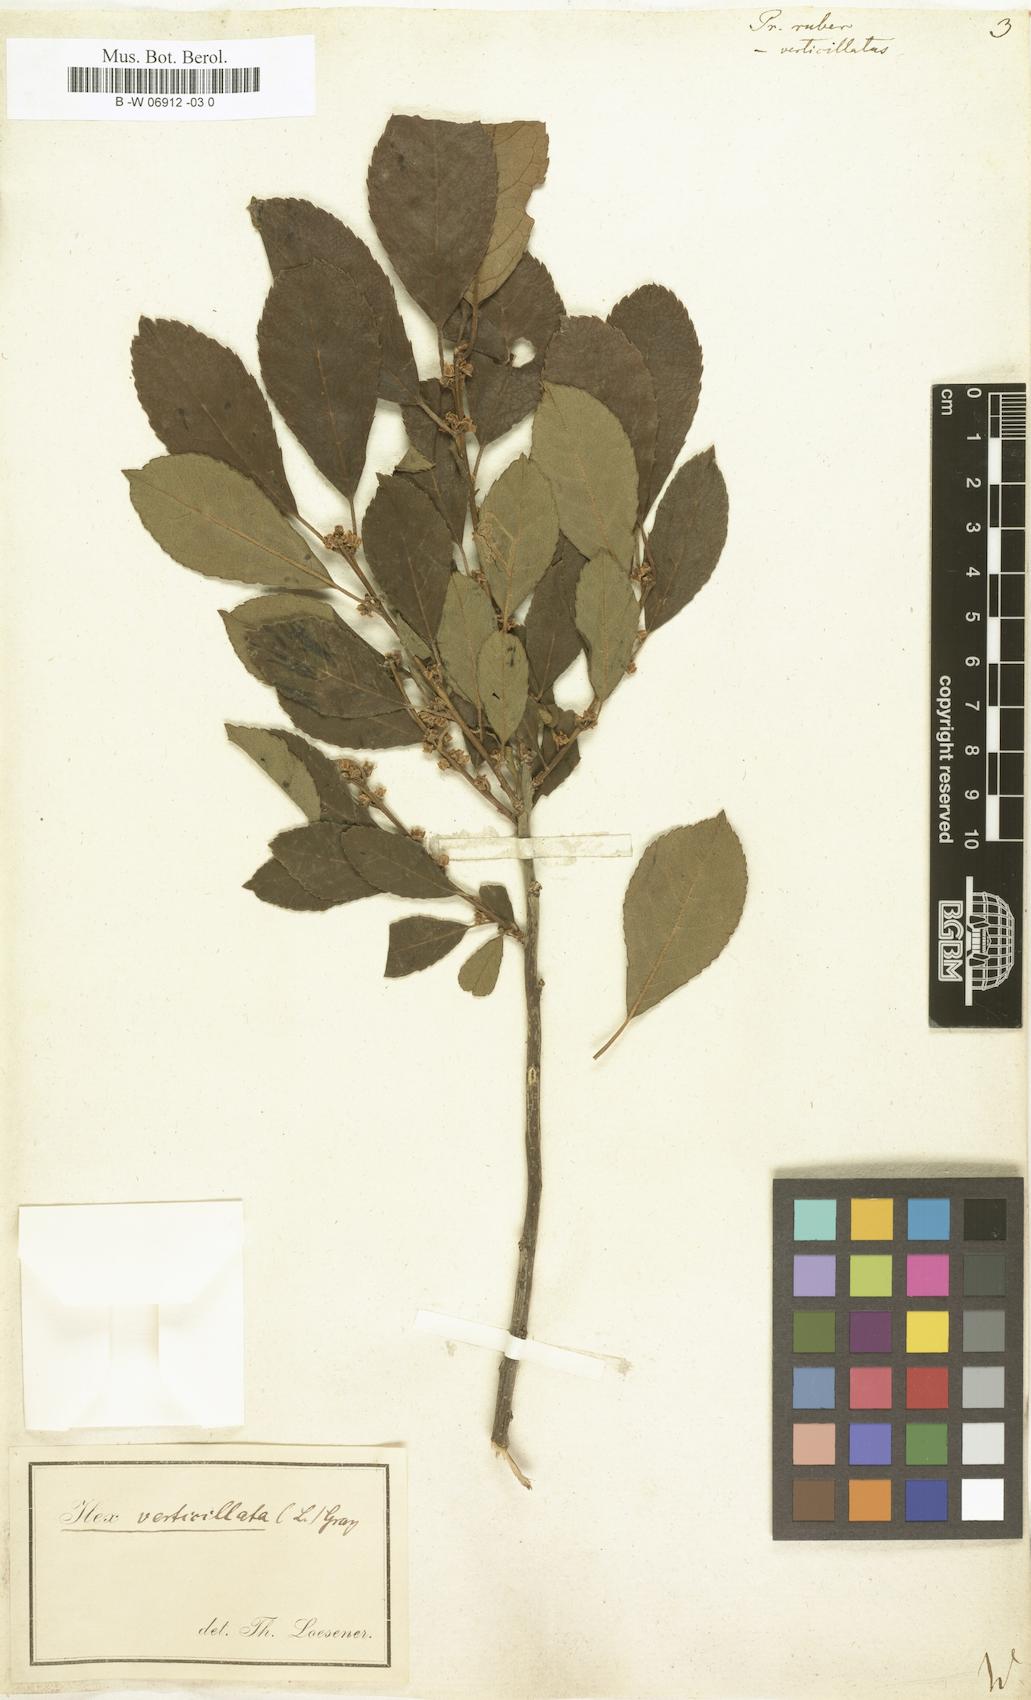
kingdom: Plantae
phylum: Tracheophyta
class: Magnoliopsida
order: Aquifoliales
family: Aquifoliaceae
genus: Ilex
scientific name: Ilex
